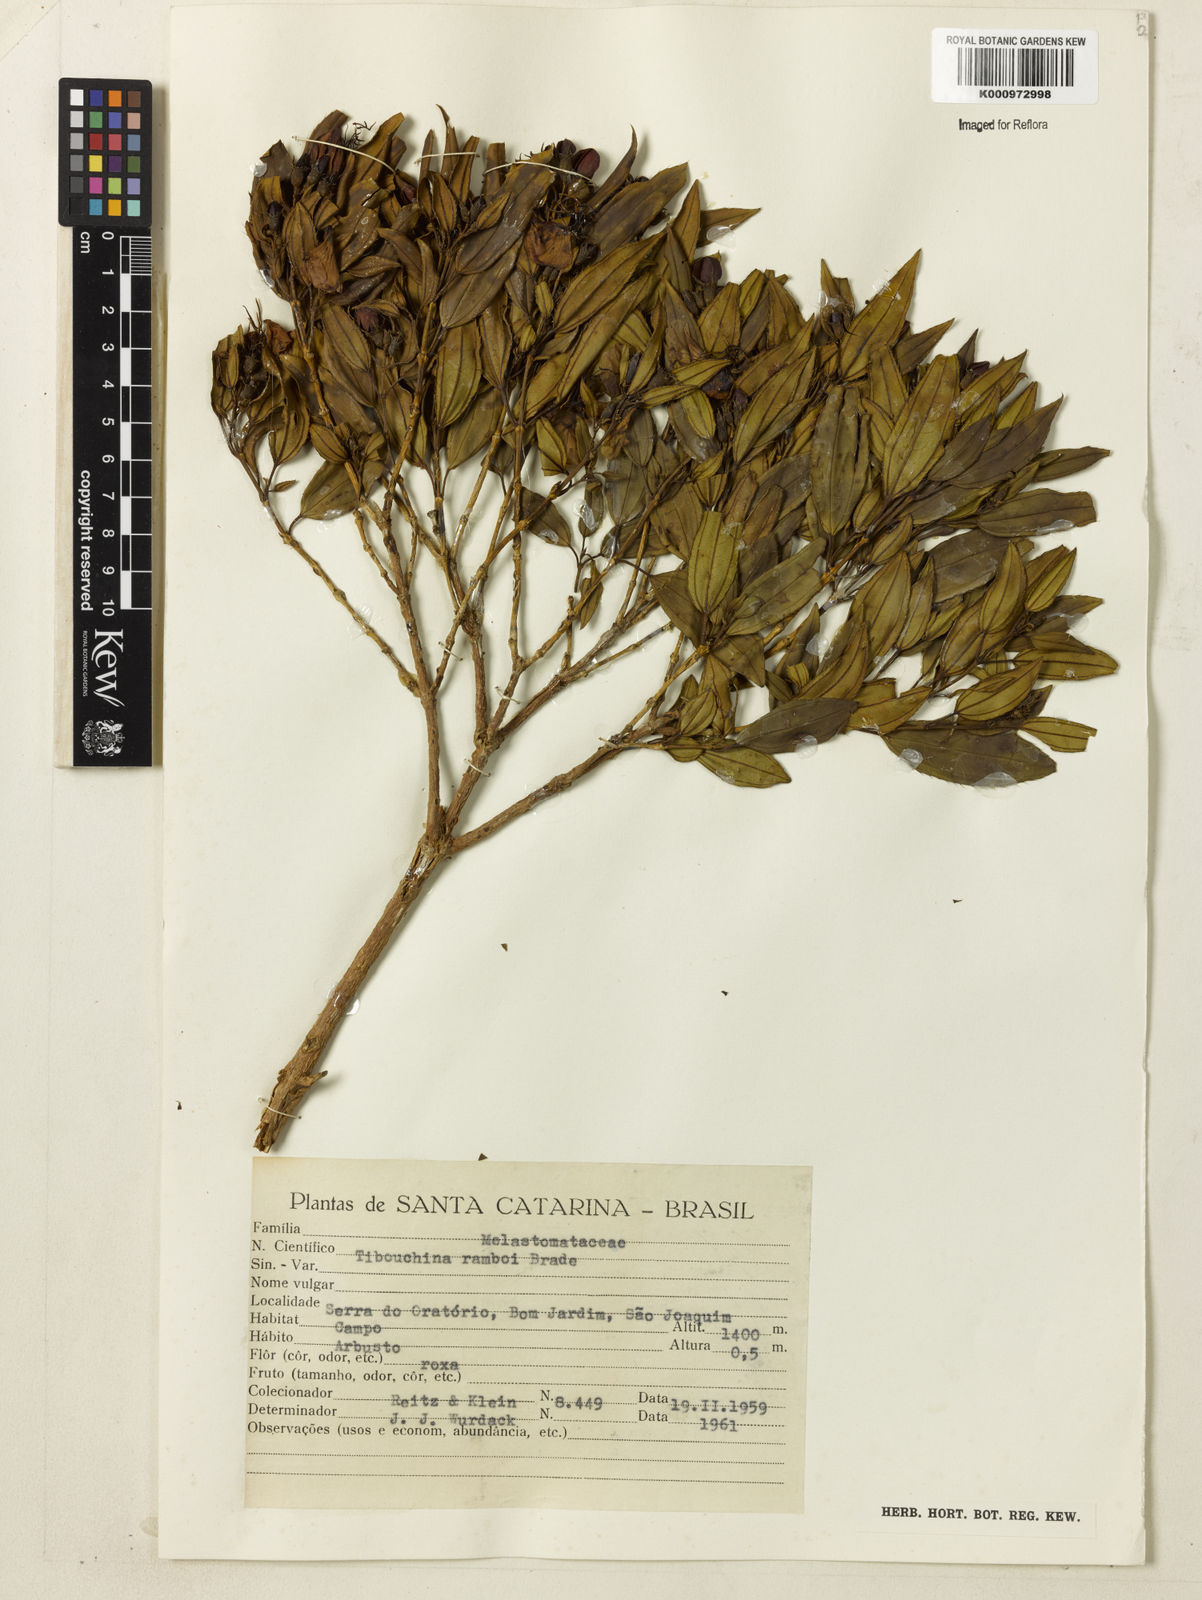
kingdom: Plantae
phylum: Tracheophyta
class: Magnoliopsida
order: Myrtales
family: Melastomataceae
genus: Pleroma
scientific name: Pleroma ramboi
